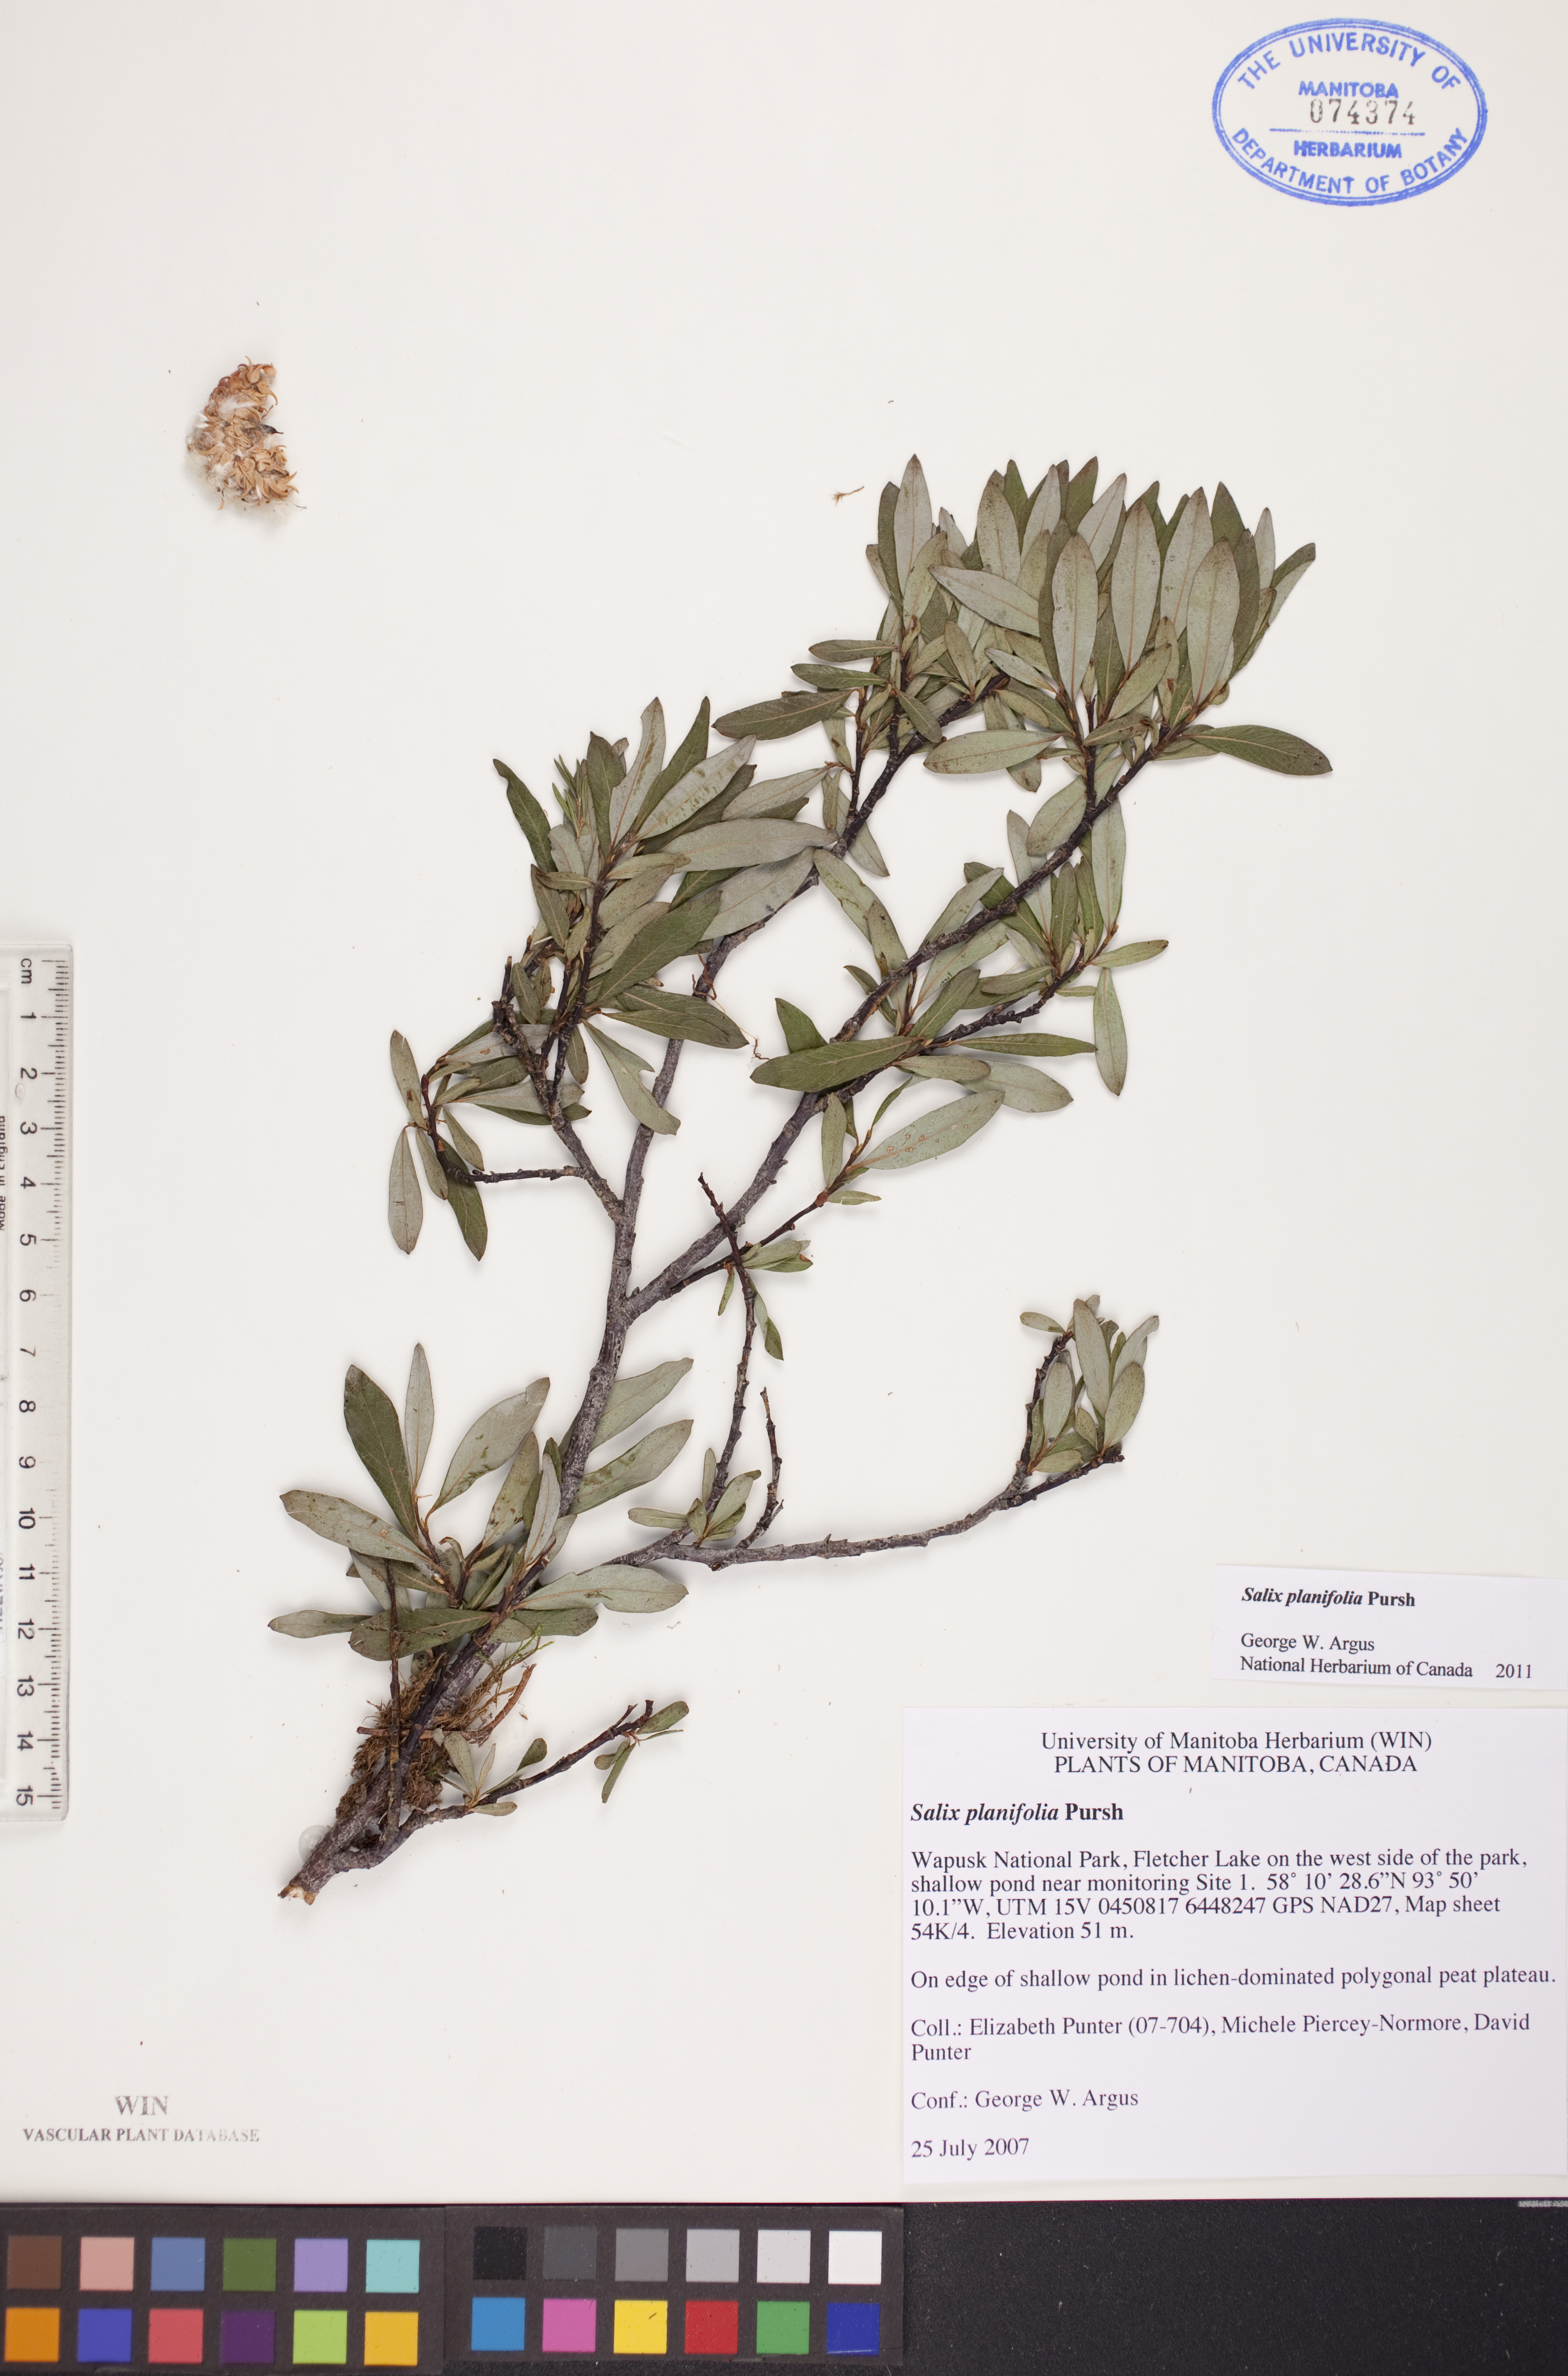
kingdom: Plantae
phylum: Tracheophyta
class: Magnoliopsida
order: Malpighiales
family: Salicaceae
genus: Salix
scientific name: Salix planifolia
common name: Mountain willow
